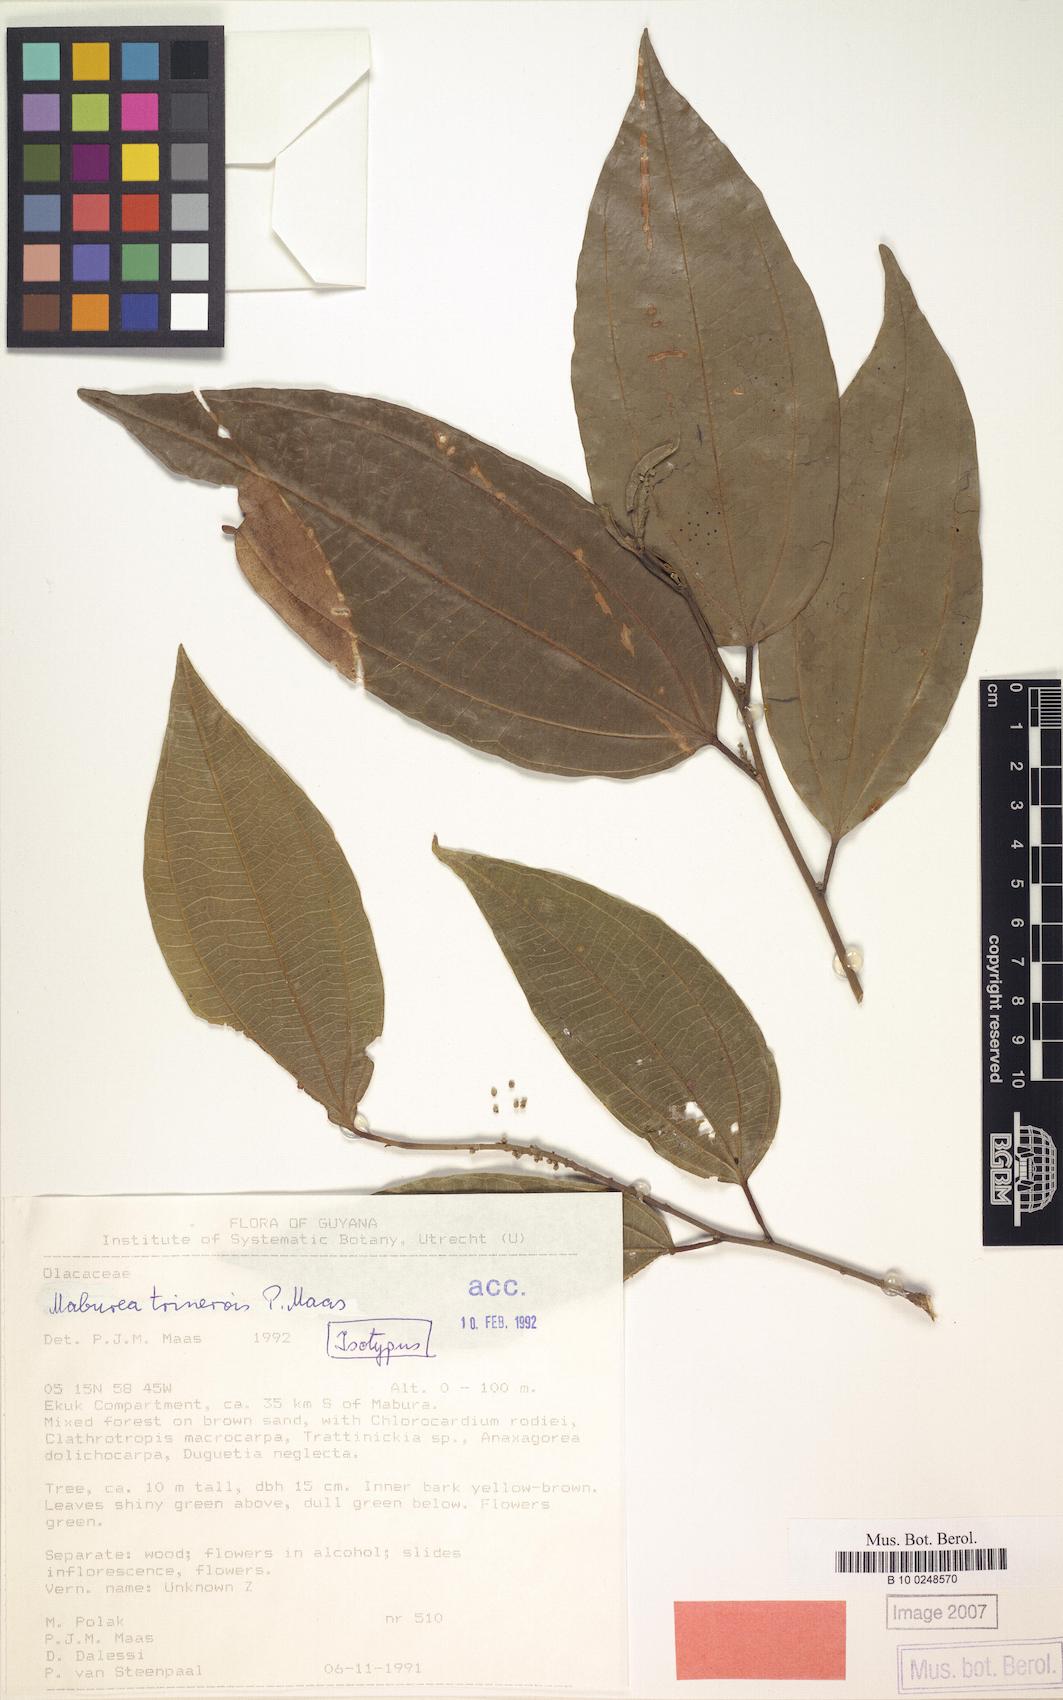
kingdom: Plantae
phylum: Tracheophyta
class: Magnoliopsida
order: Santalales
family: Erythropalaceae
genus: Maburea
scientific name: Maburea trinervis
